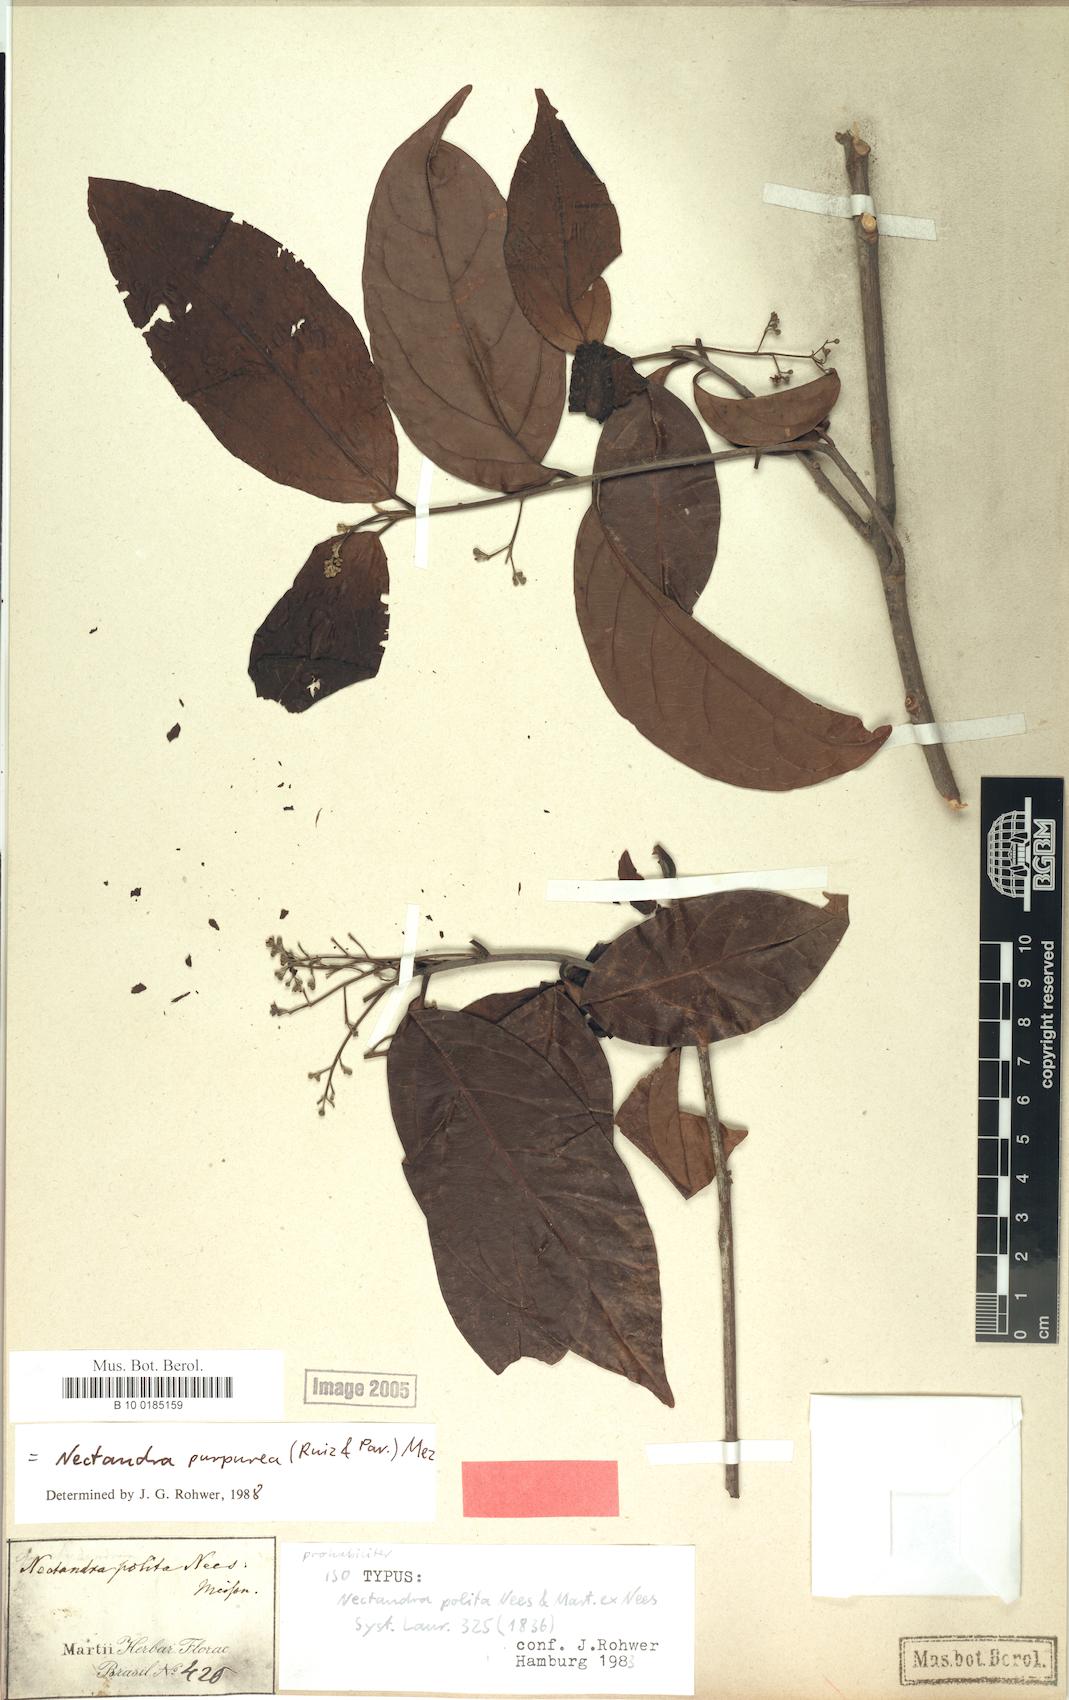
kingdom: Plantae
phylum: Tracheophyta
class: Magnoliopsida
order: Laurales
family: Lauraceae
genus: Damburneya
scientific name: Damburneya purpurea
